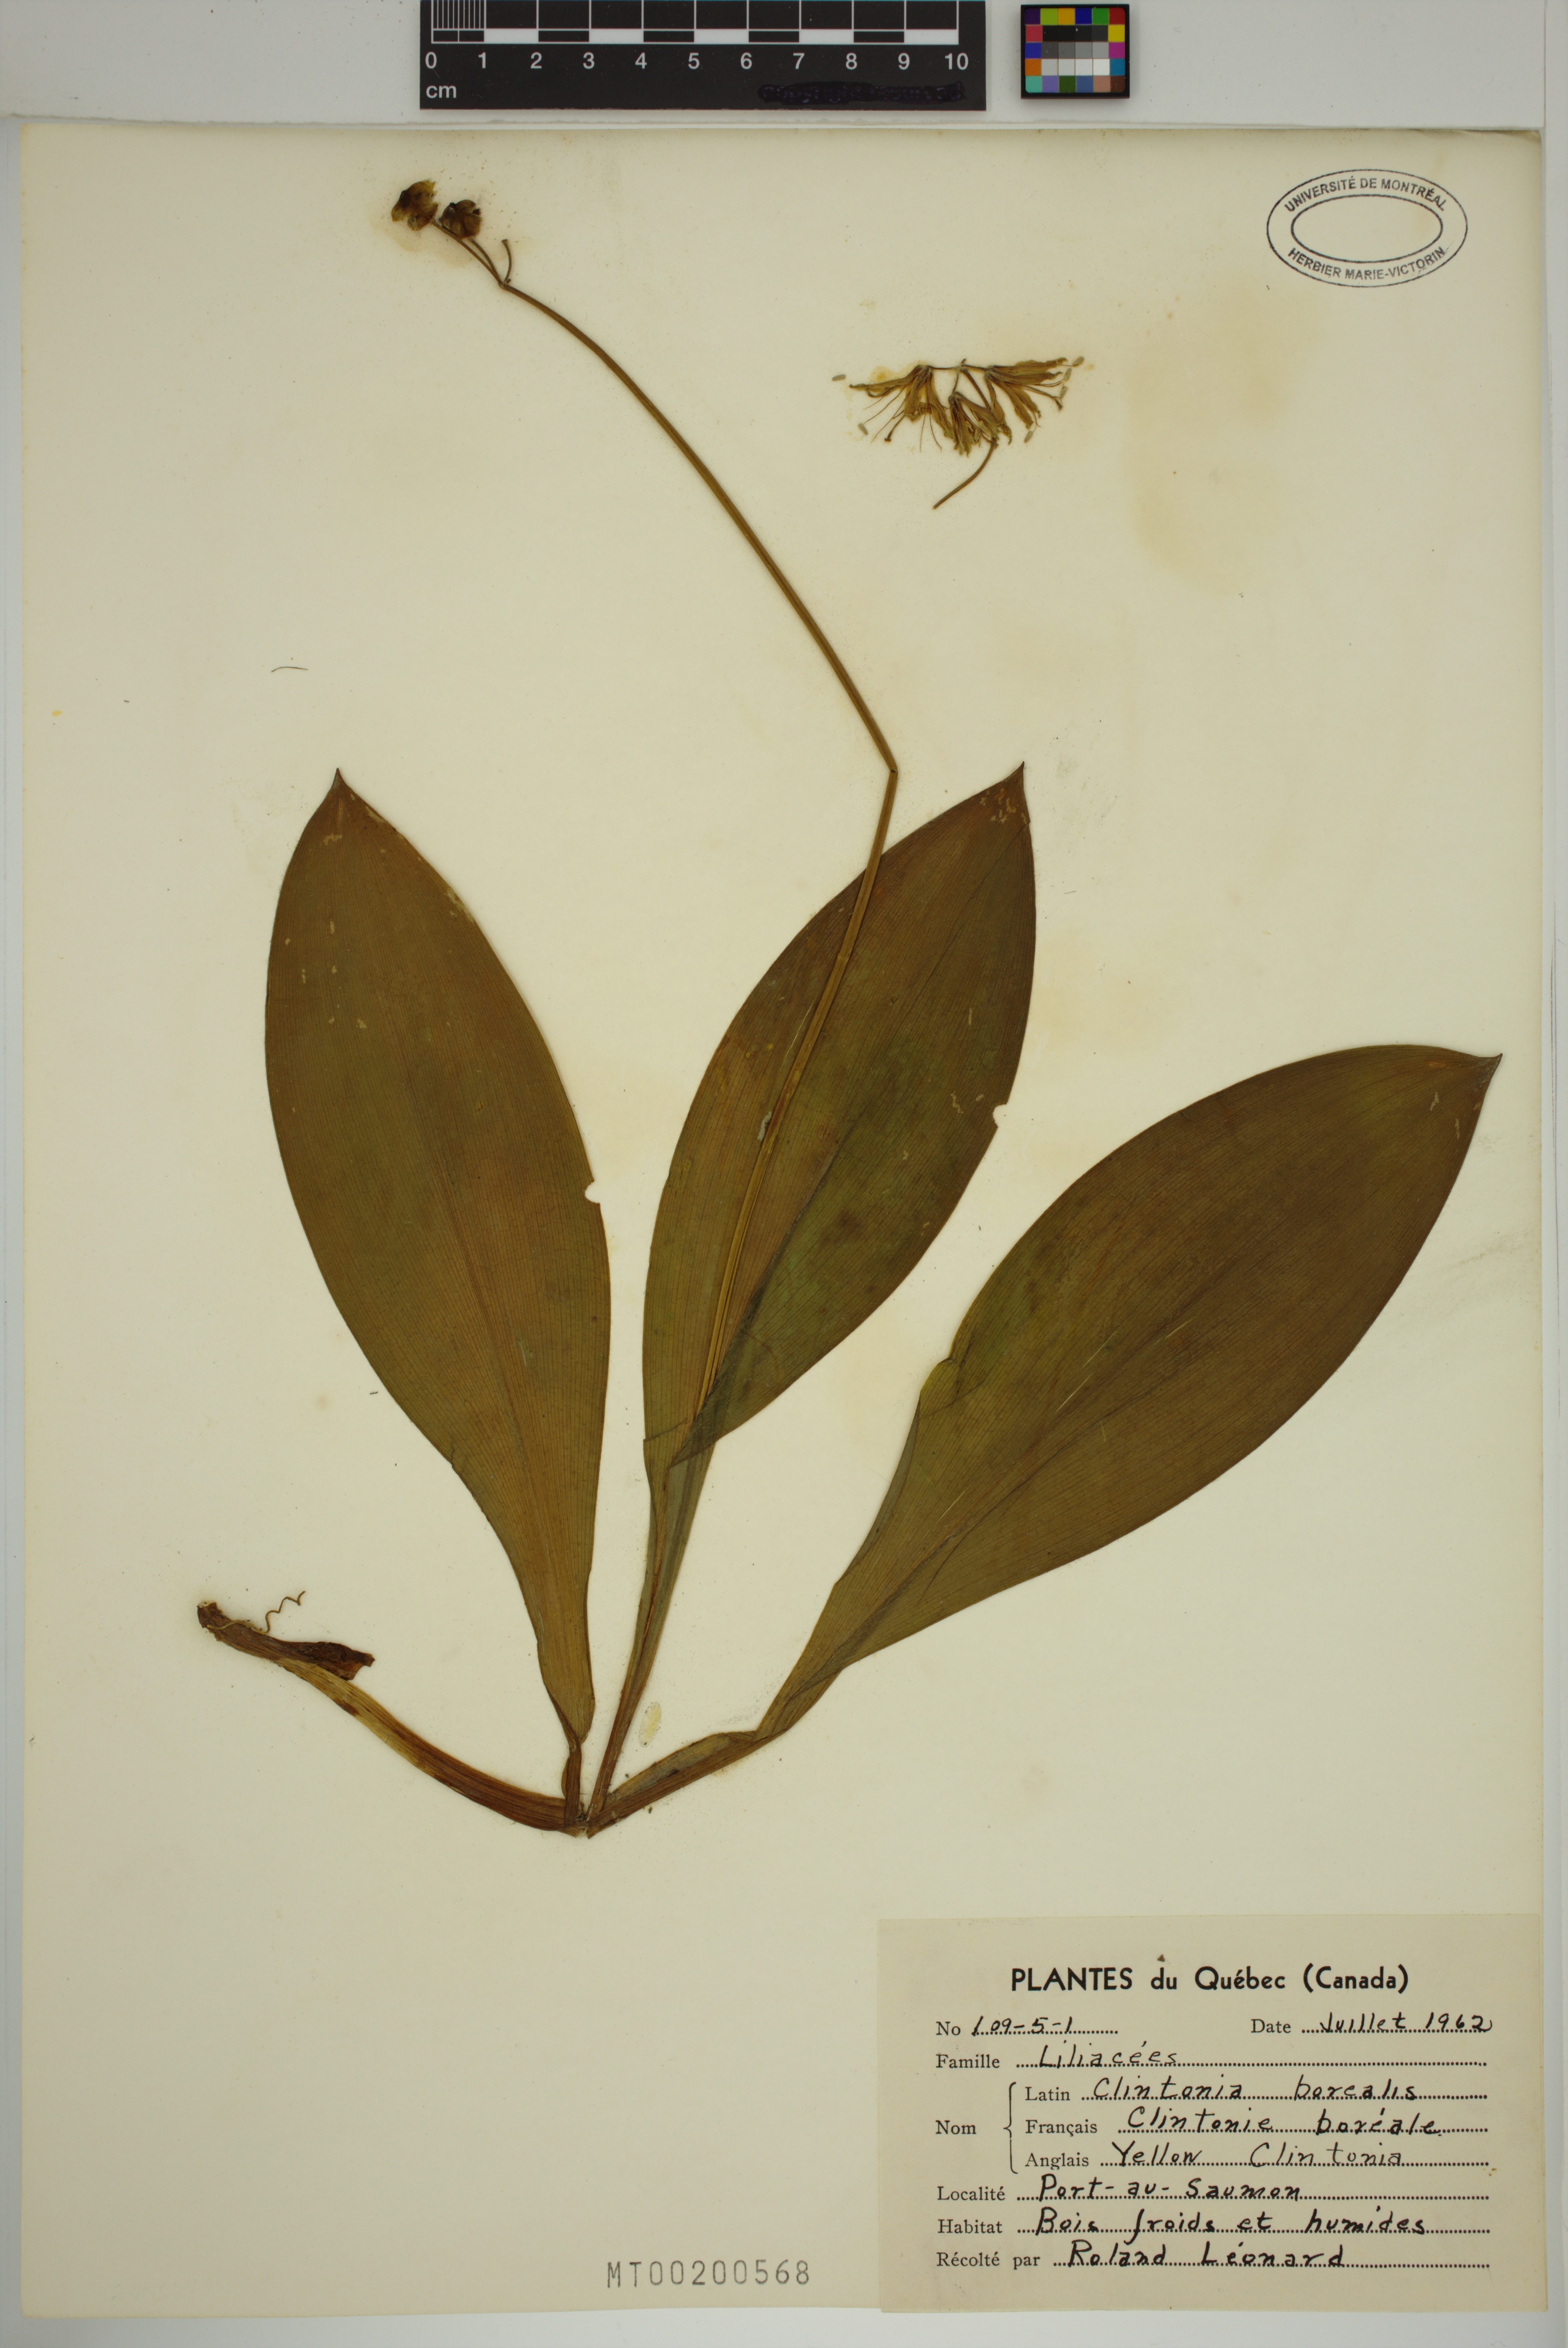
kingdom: Plantae
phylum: Tracheophyta
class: Liliopsida
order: Liliales
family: Liliaceae
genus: Clintonia
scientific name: Clintonia borealis
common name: Yellow clintonia
